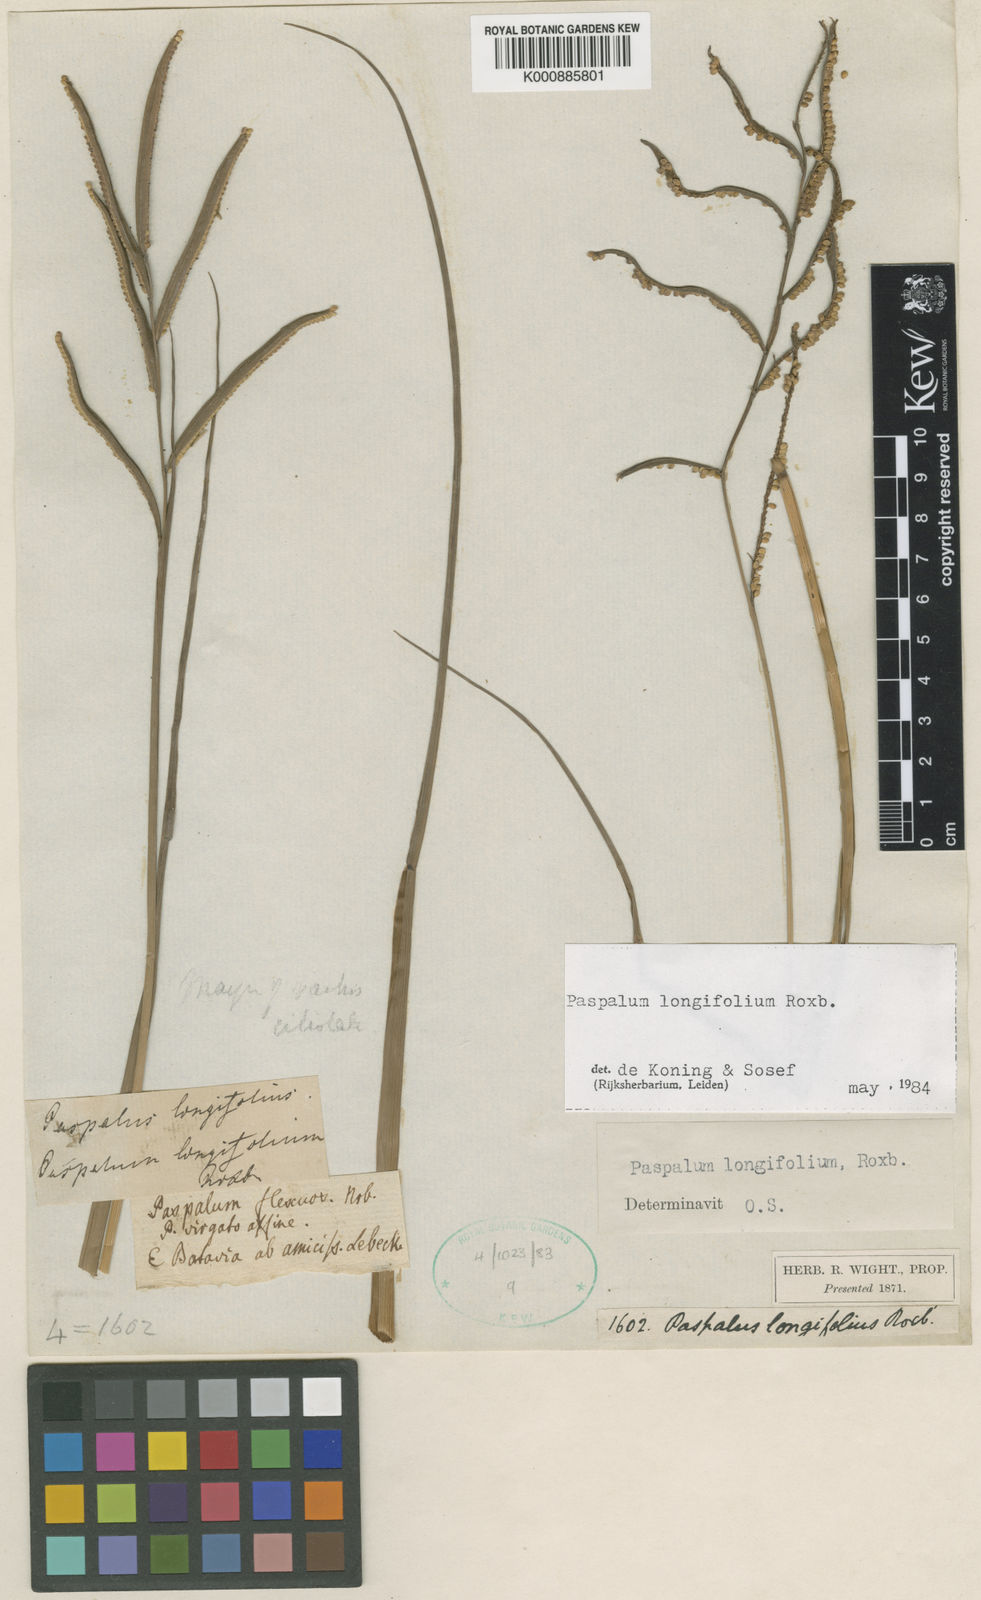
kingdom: Plantae
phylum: Tracheophyta
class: Liliopsida
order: Poales
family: Poaceae
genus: Paspalum
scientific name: Paspalum sumatrense
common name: Long-leaved paspalum
